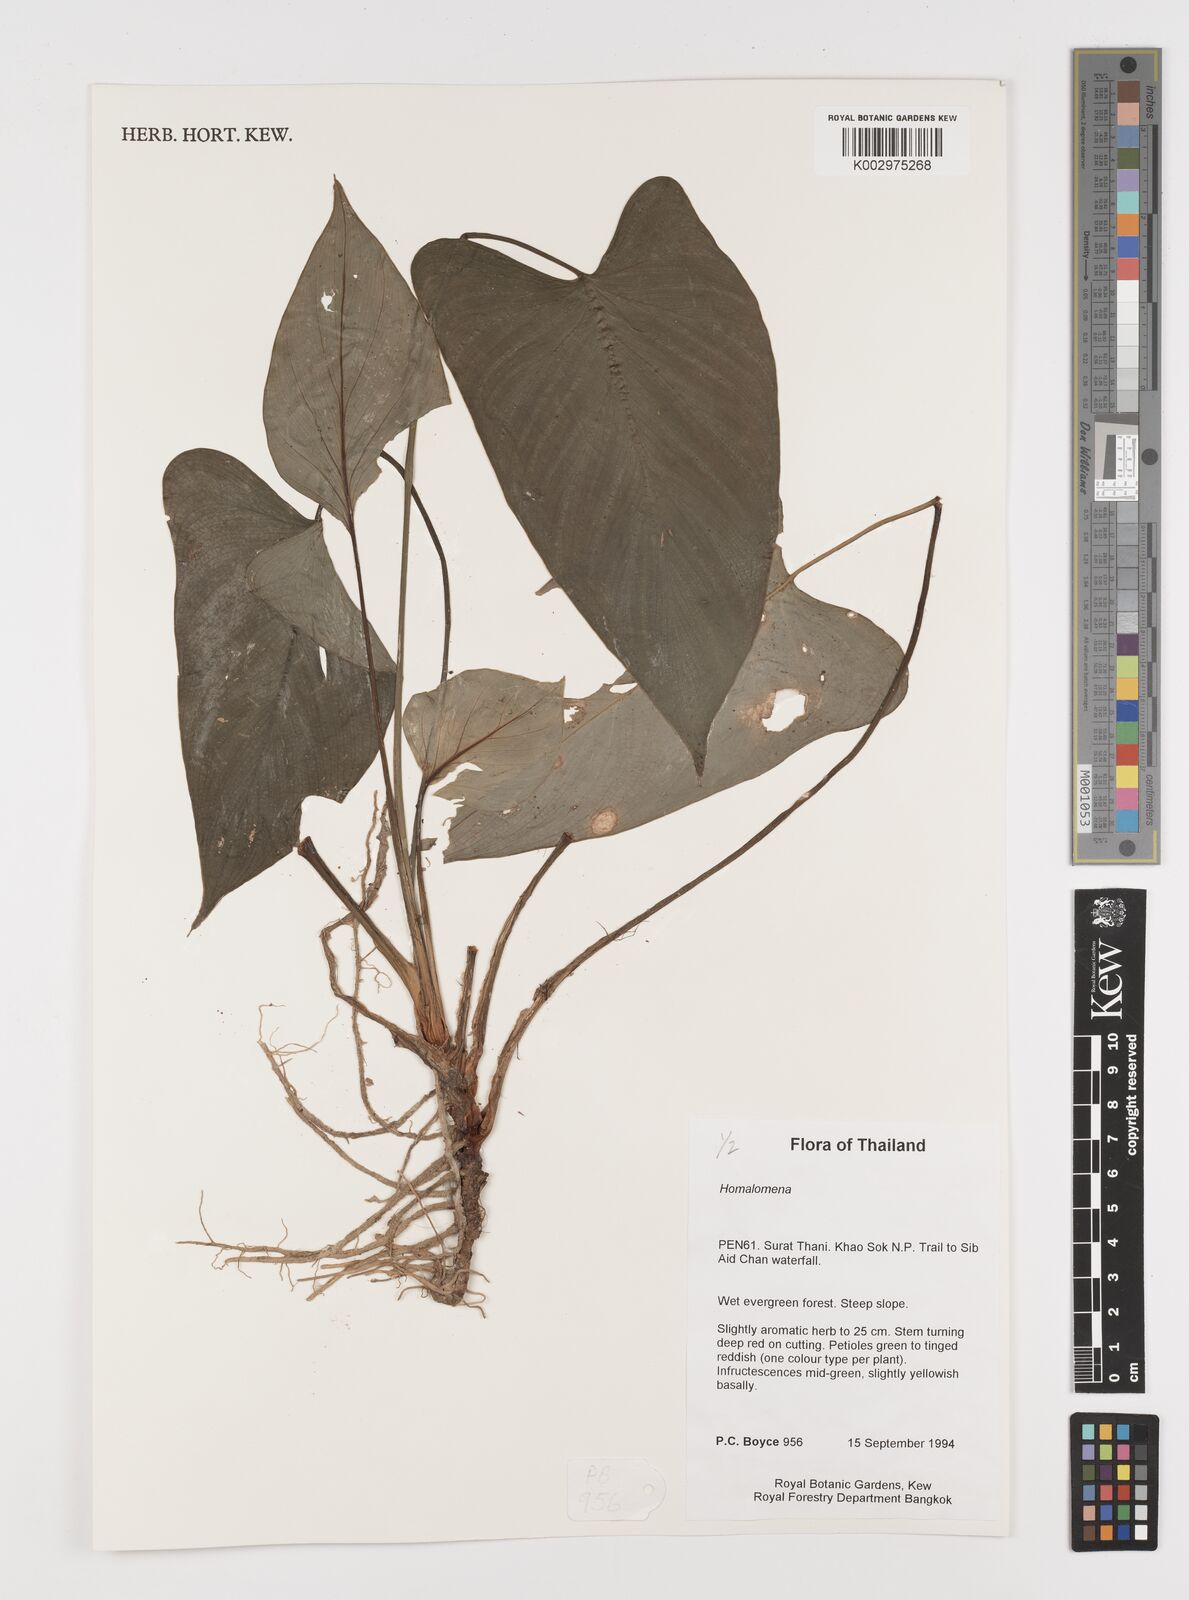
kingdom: Plantae
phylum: Tracheophyta
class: Liliopsida
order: Alismatales
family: Araceae
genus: Homalomena
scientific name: Homalomena
